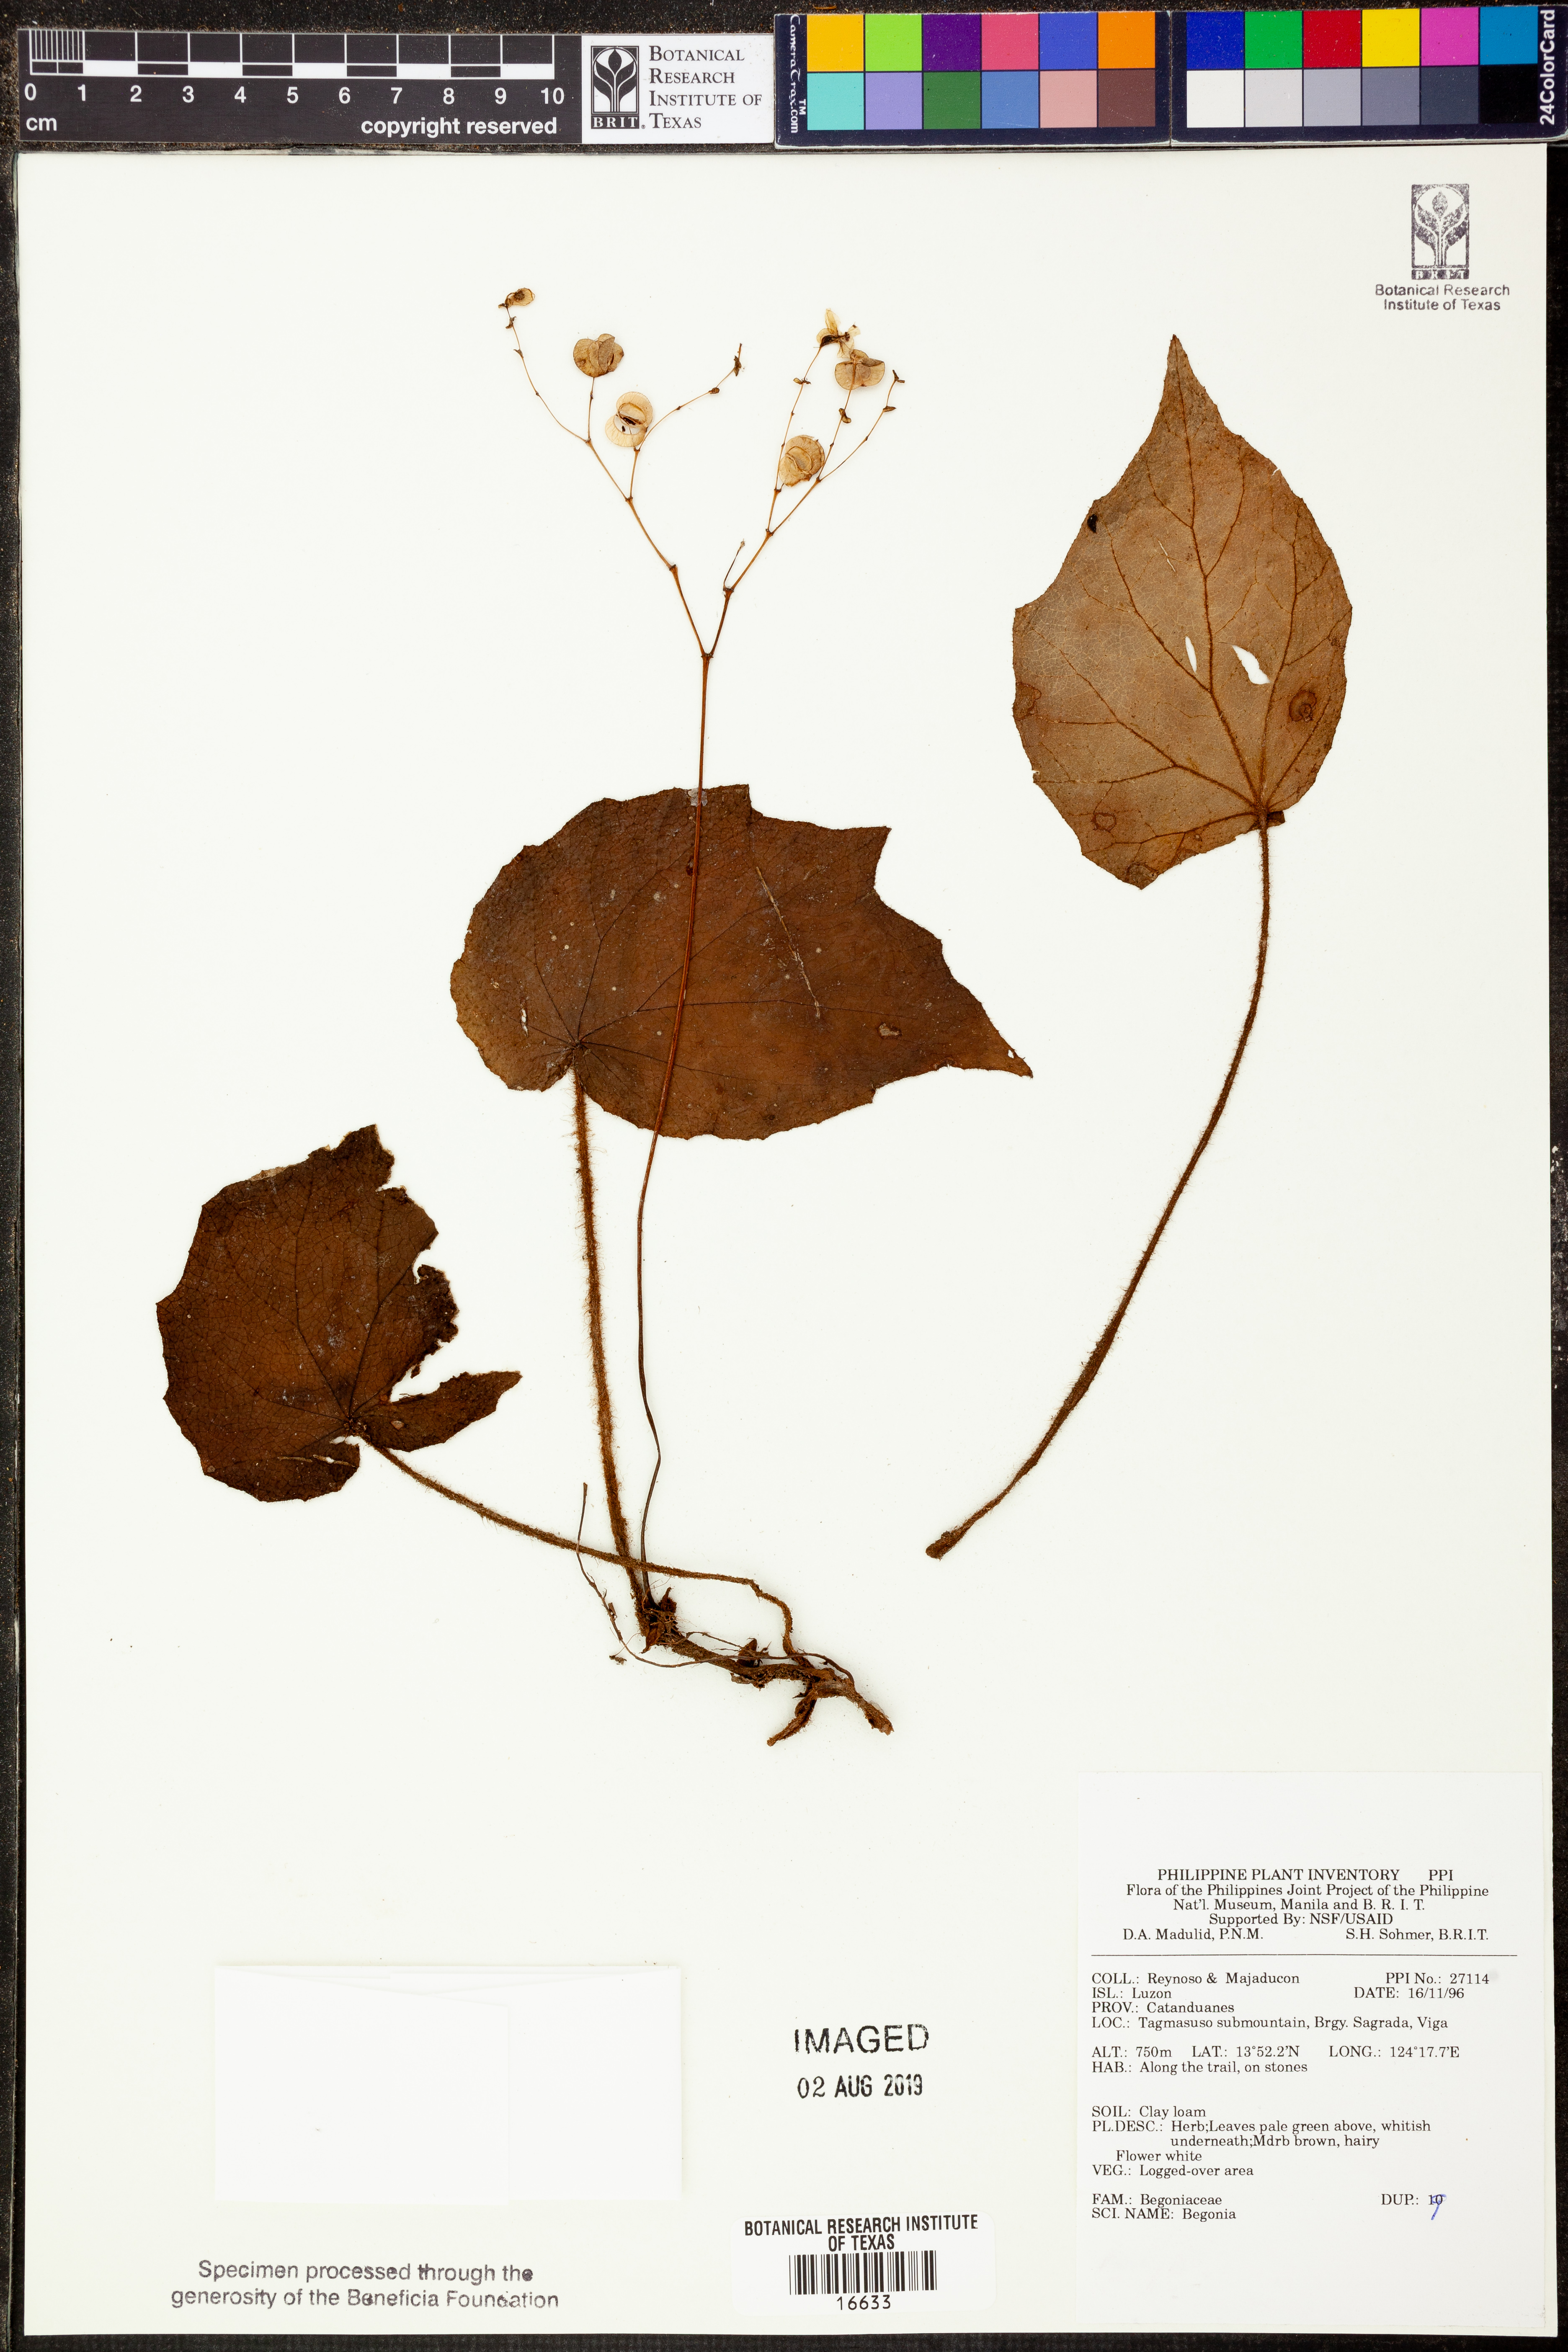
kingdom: Plantae
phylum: Tracheophyta
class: Magnoliopsida
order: Cucurbitales
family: Begoniaceae
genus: Begonia
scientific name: Begonia
